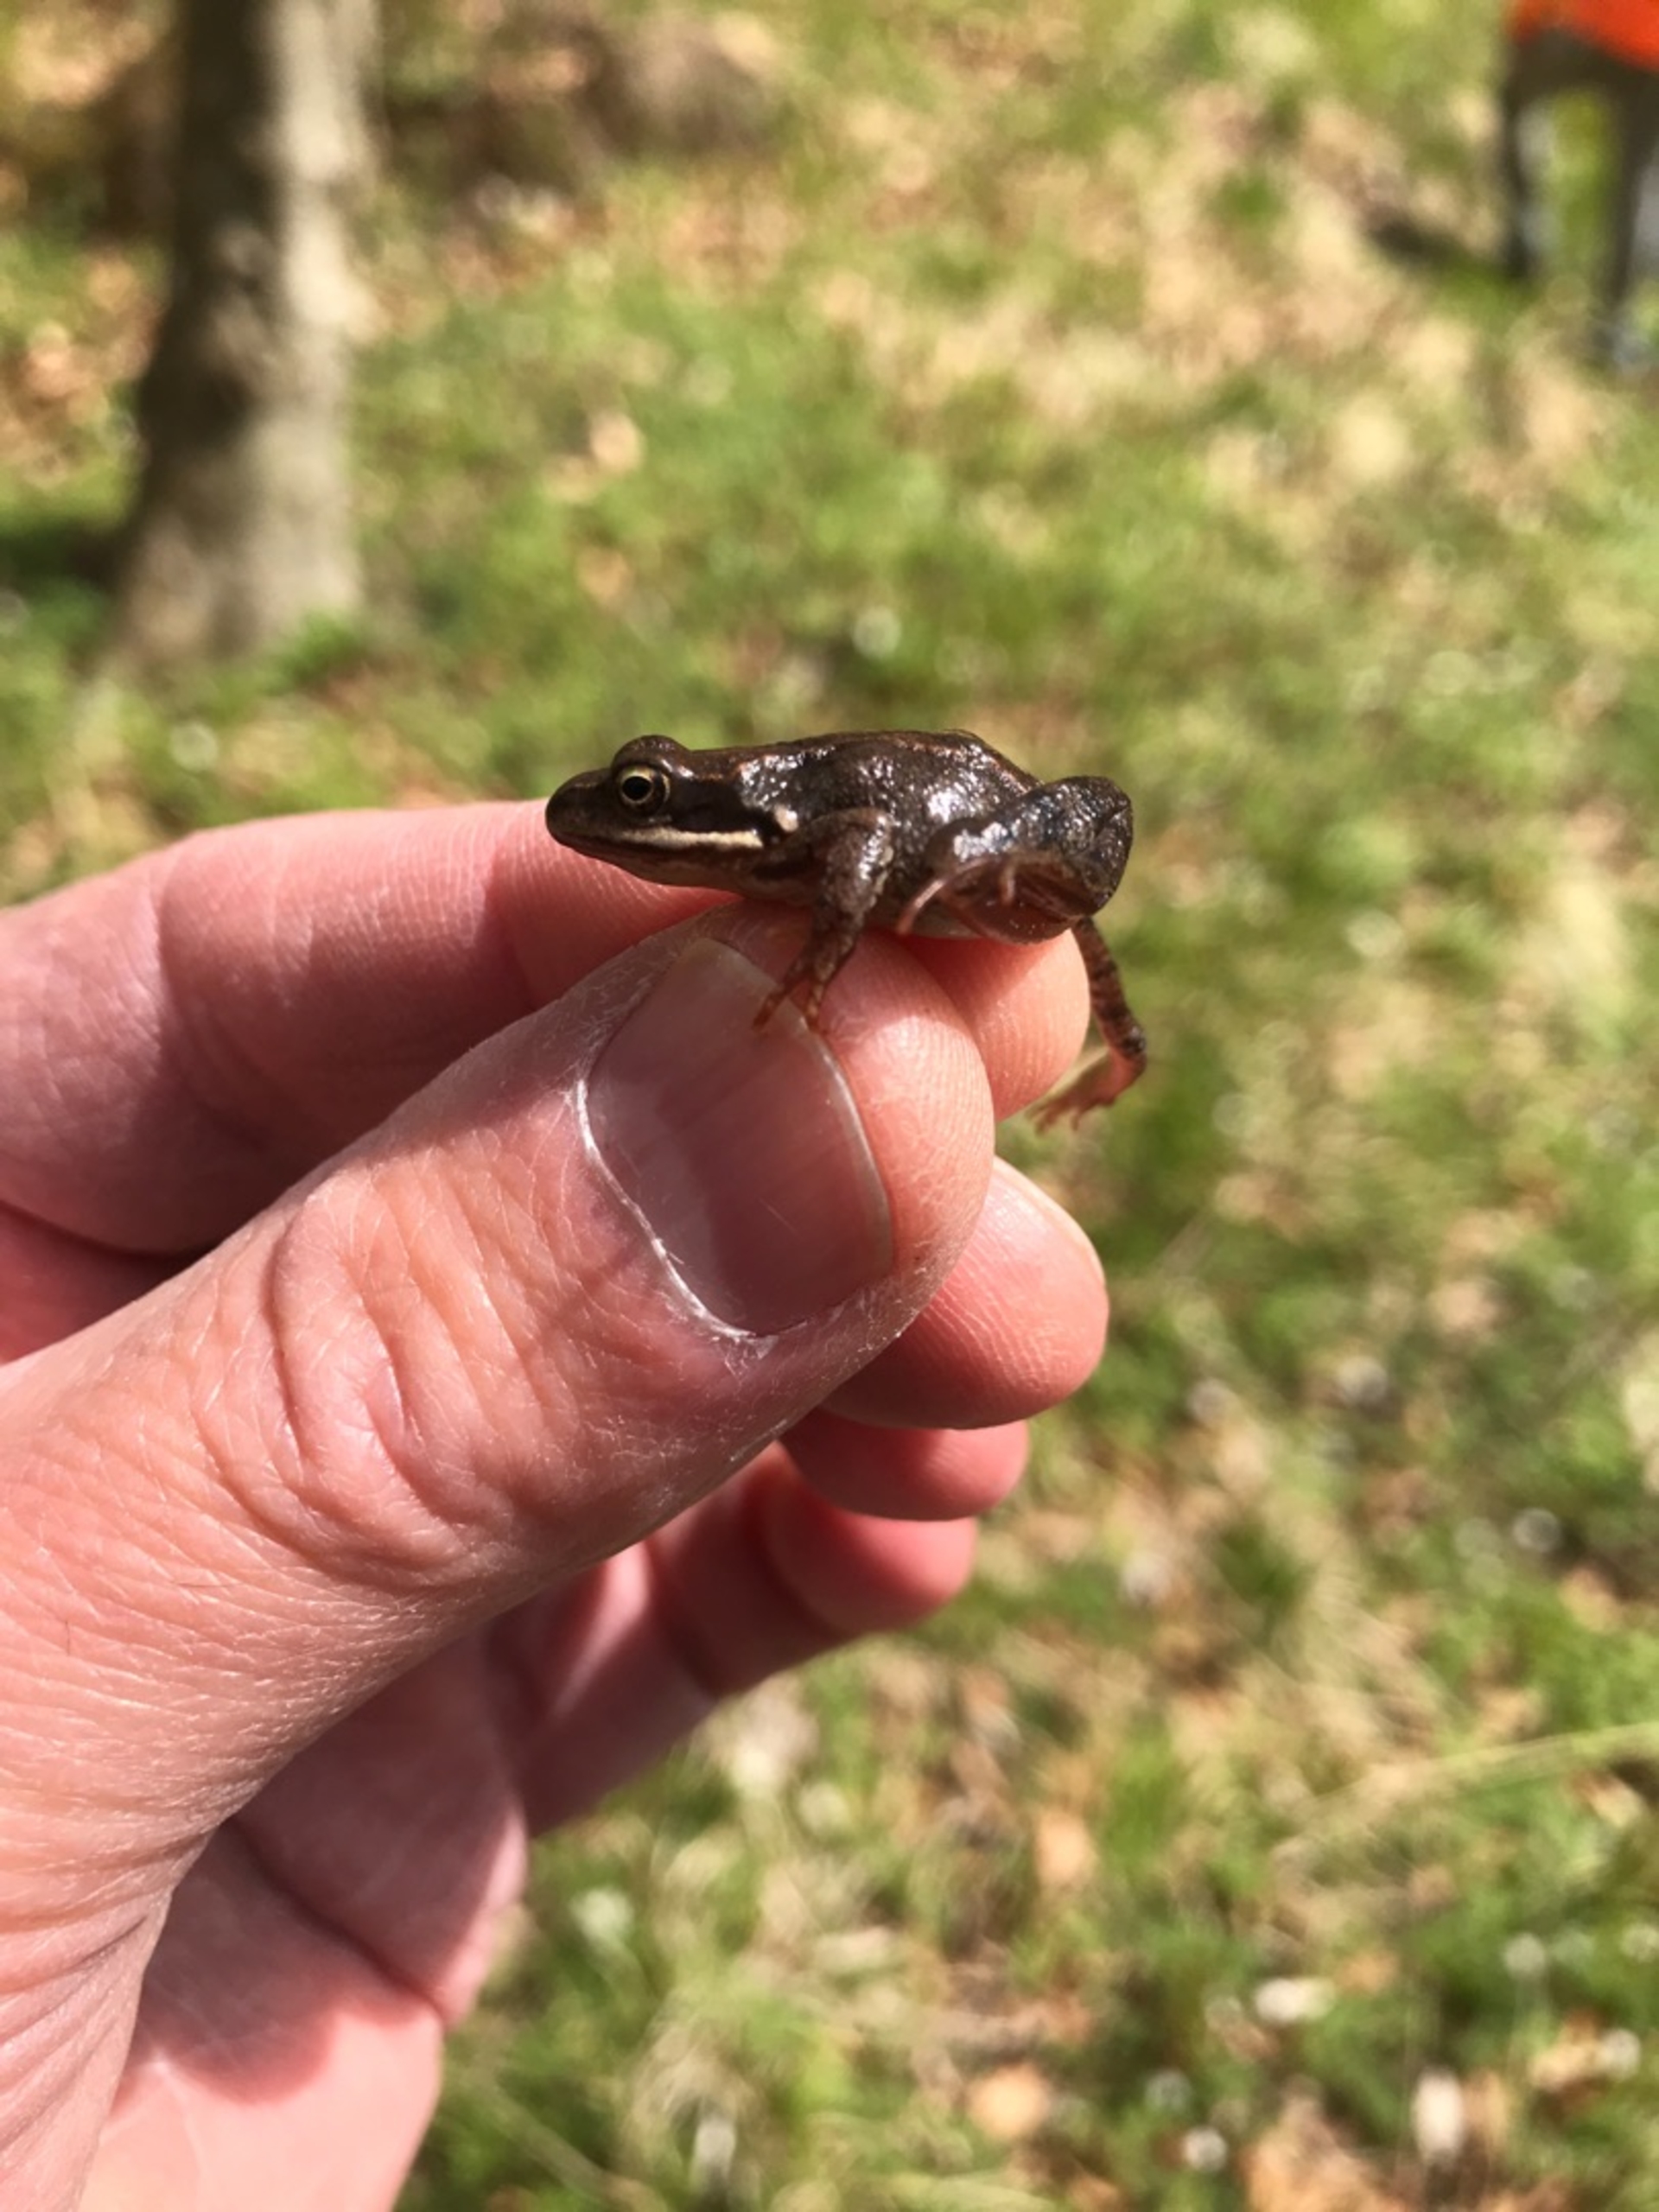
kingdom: Animalia
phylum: Chordata
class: Amphibia
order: Anura
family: Ranidae
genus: Rana
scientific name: Rana temporaria
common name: Butsnudet frø
